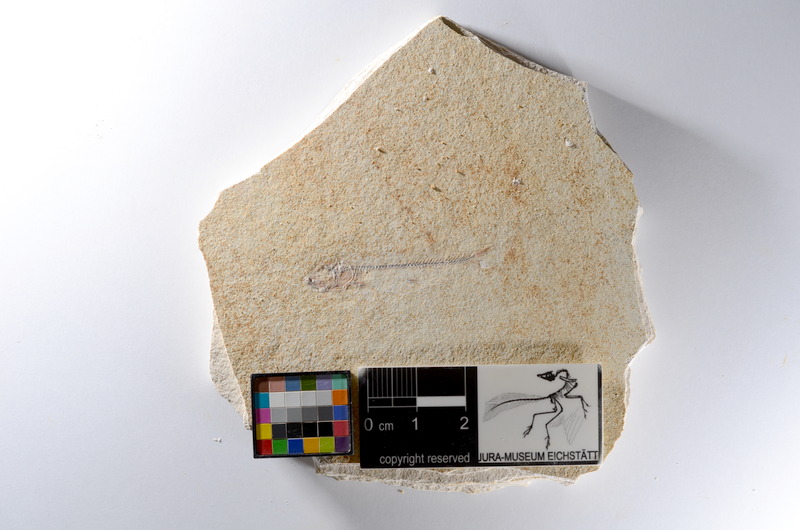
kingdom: Animalia
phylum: Chordata
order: Salmoniformes
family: Orthogonikleithridae
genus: Orthogonikleithrus
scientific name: Orthogonikleithrus hoelli
